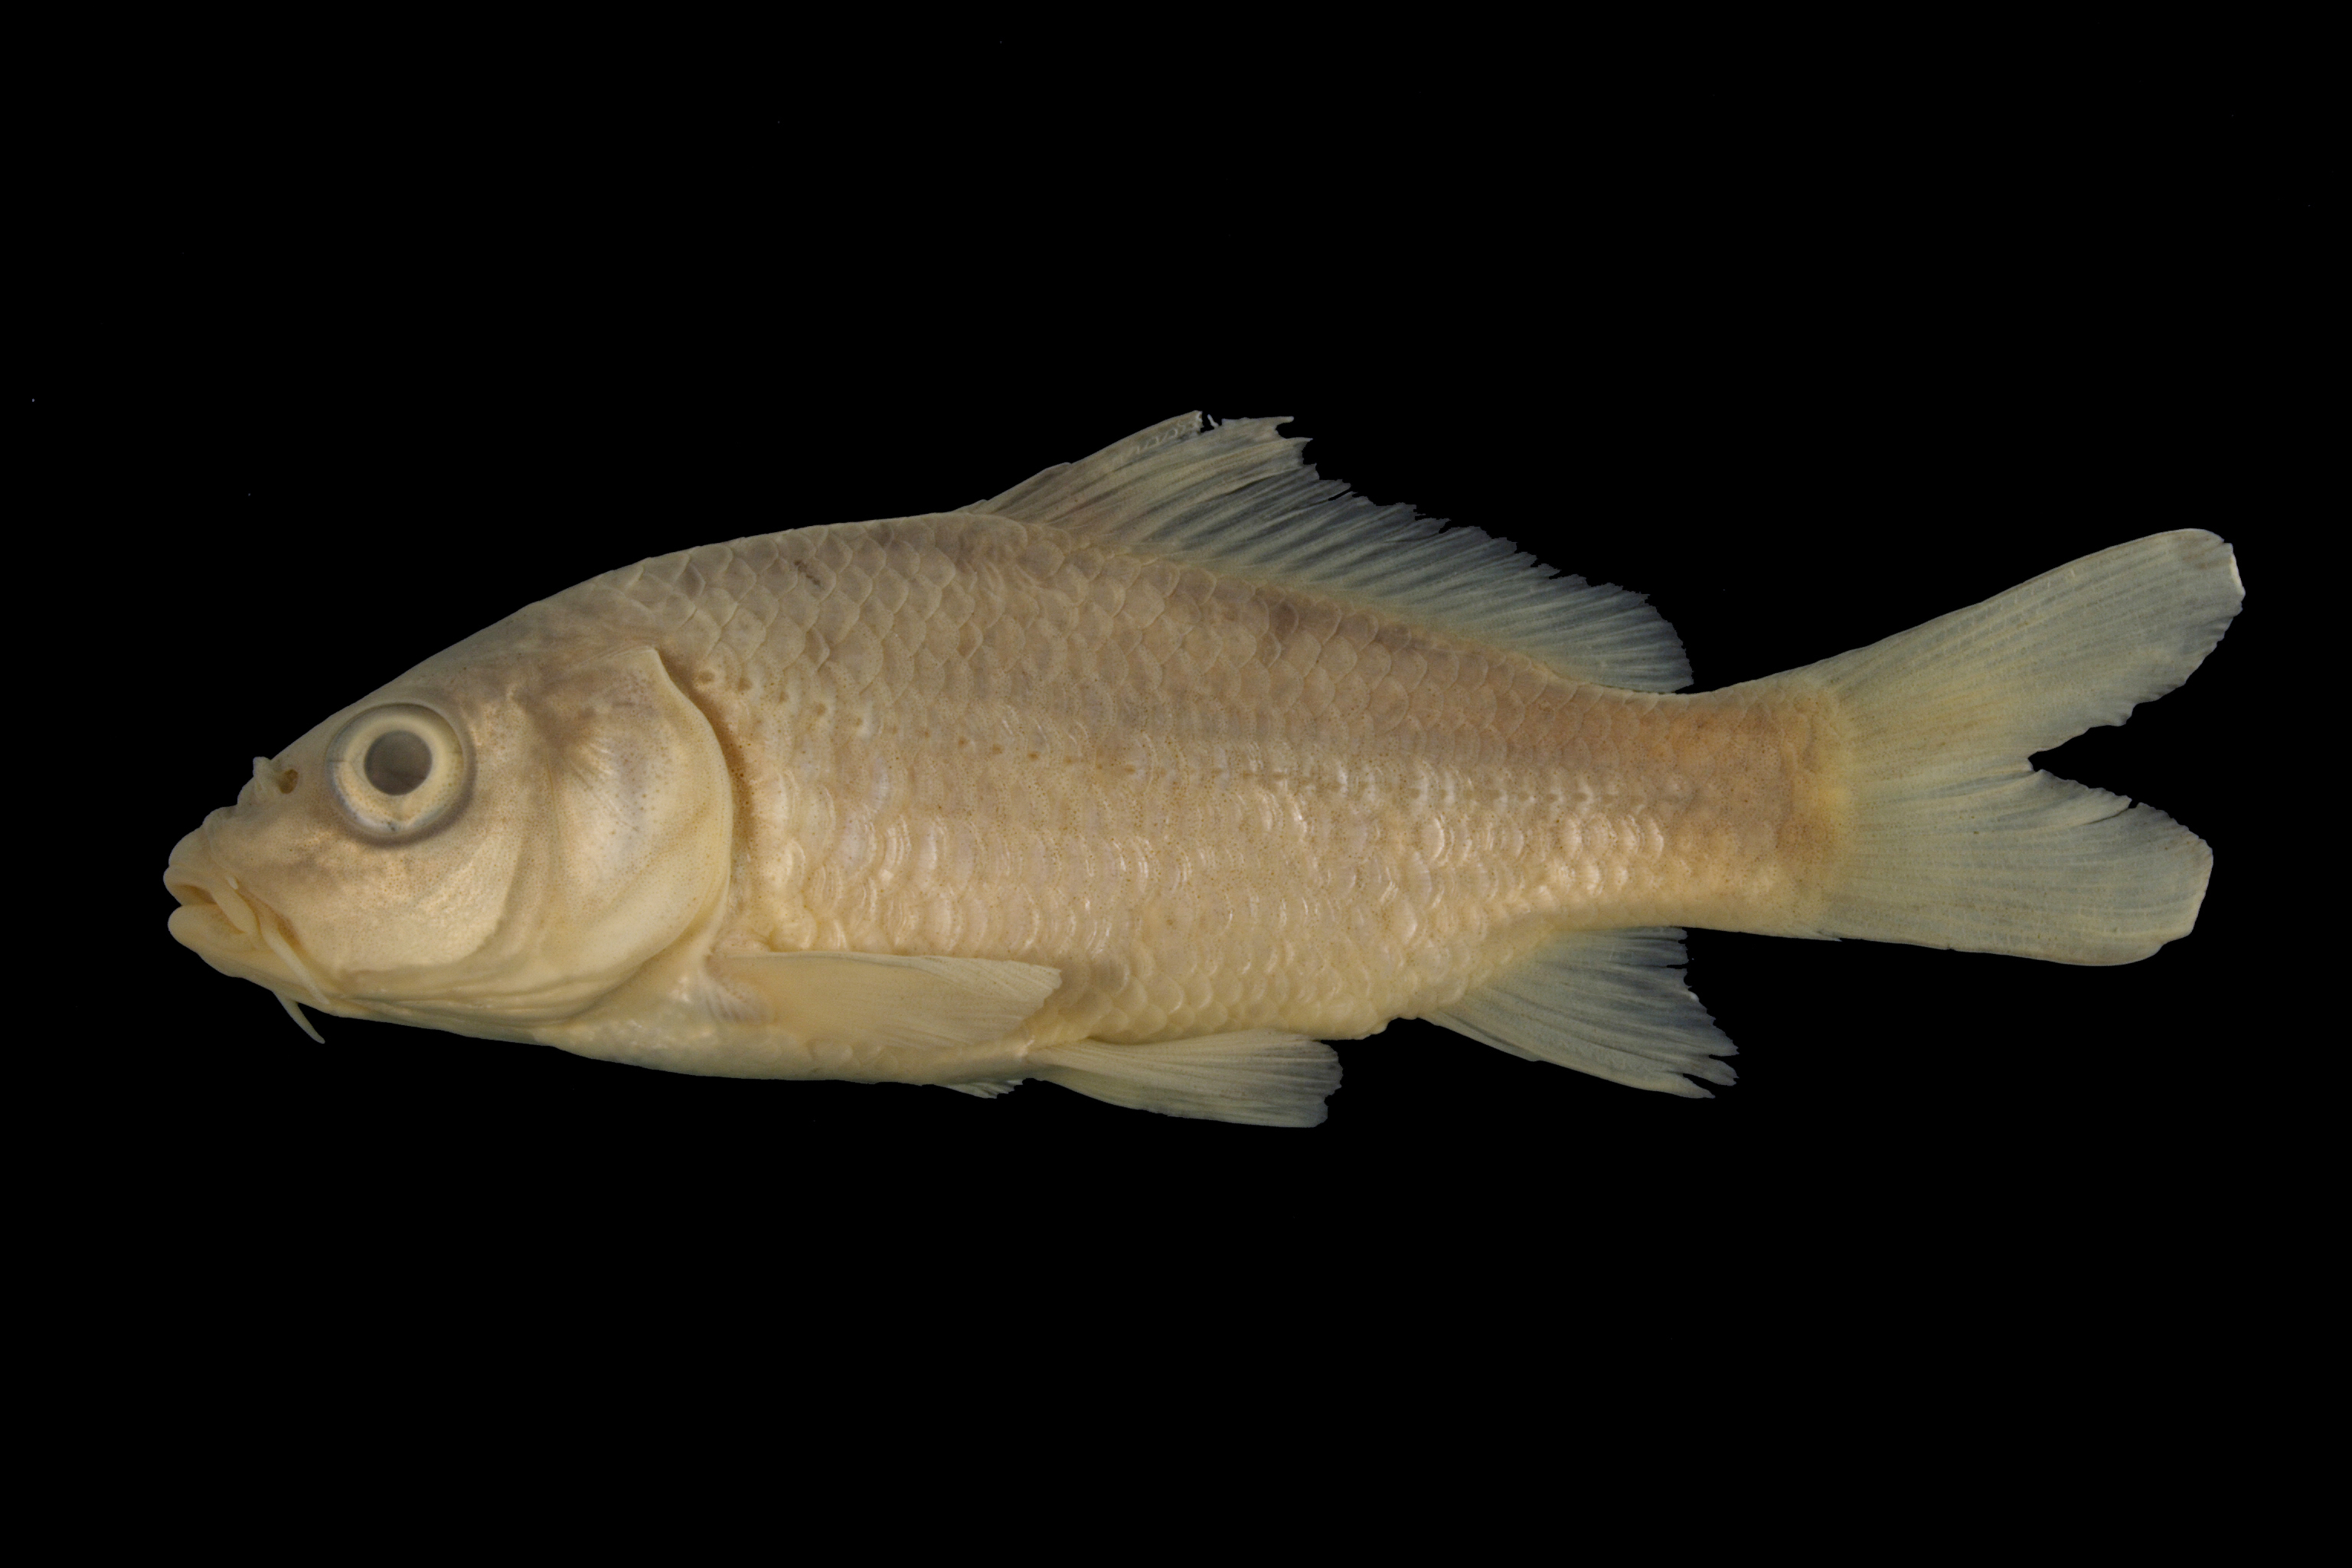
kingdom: Animalia
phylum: Chordata
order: Cypriniformes
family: Cyprinidae
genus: Cyprinus
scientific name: Cyprinus carpio
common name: Common carp
